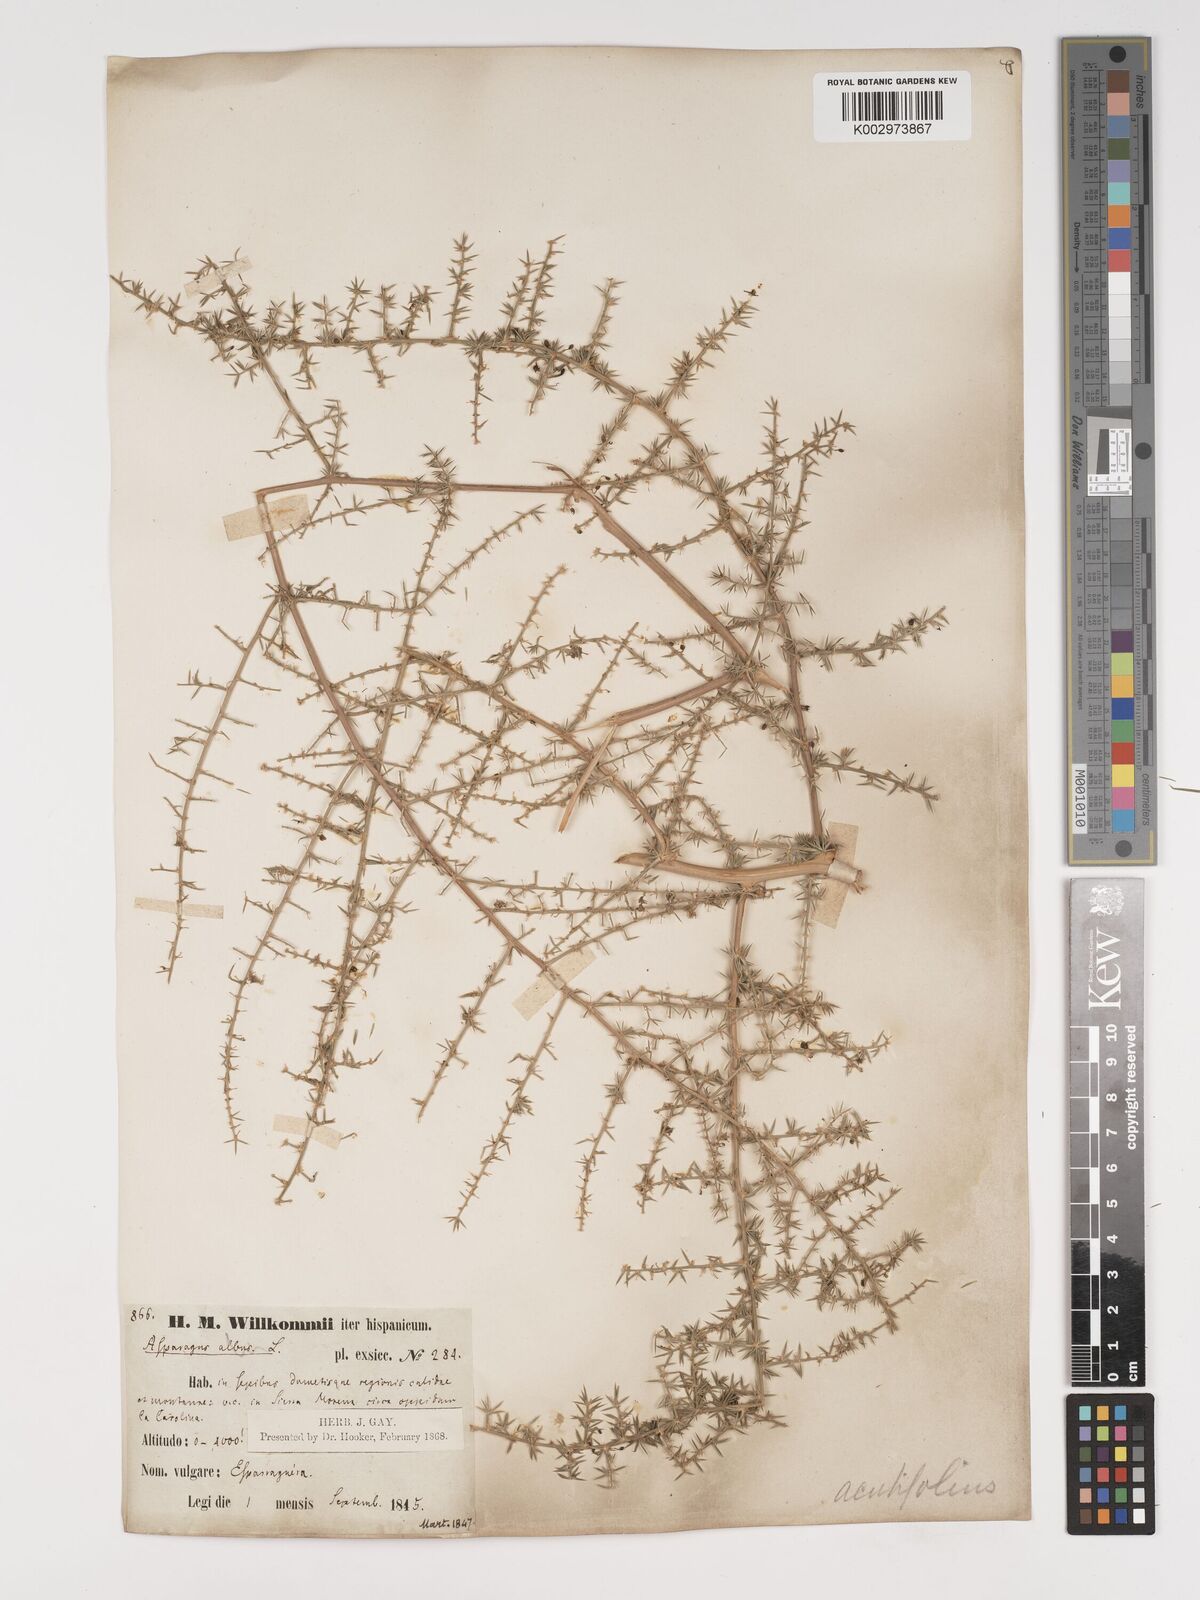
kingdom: Plantae
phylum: Tracheophyta
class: Liliopsida
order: Asparagales
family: Asparagaceae
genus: Asparagus
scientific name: Asparagus acutifolius
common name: Wild asparagus
